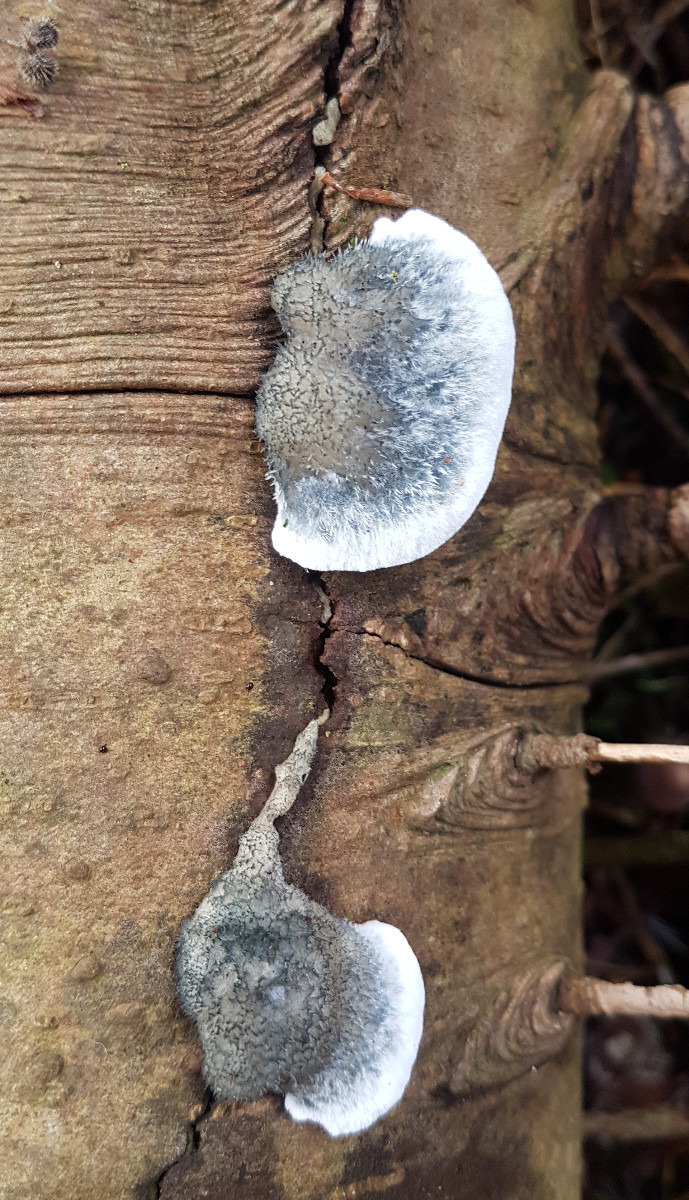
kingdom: Fungi
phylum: Basidiomycota
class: Agaricomycetes
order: Polyporales
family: Polyporaceae
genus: Cyanosporus
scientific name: Cyanosporus caesius
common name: blålig kødporesvamp
